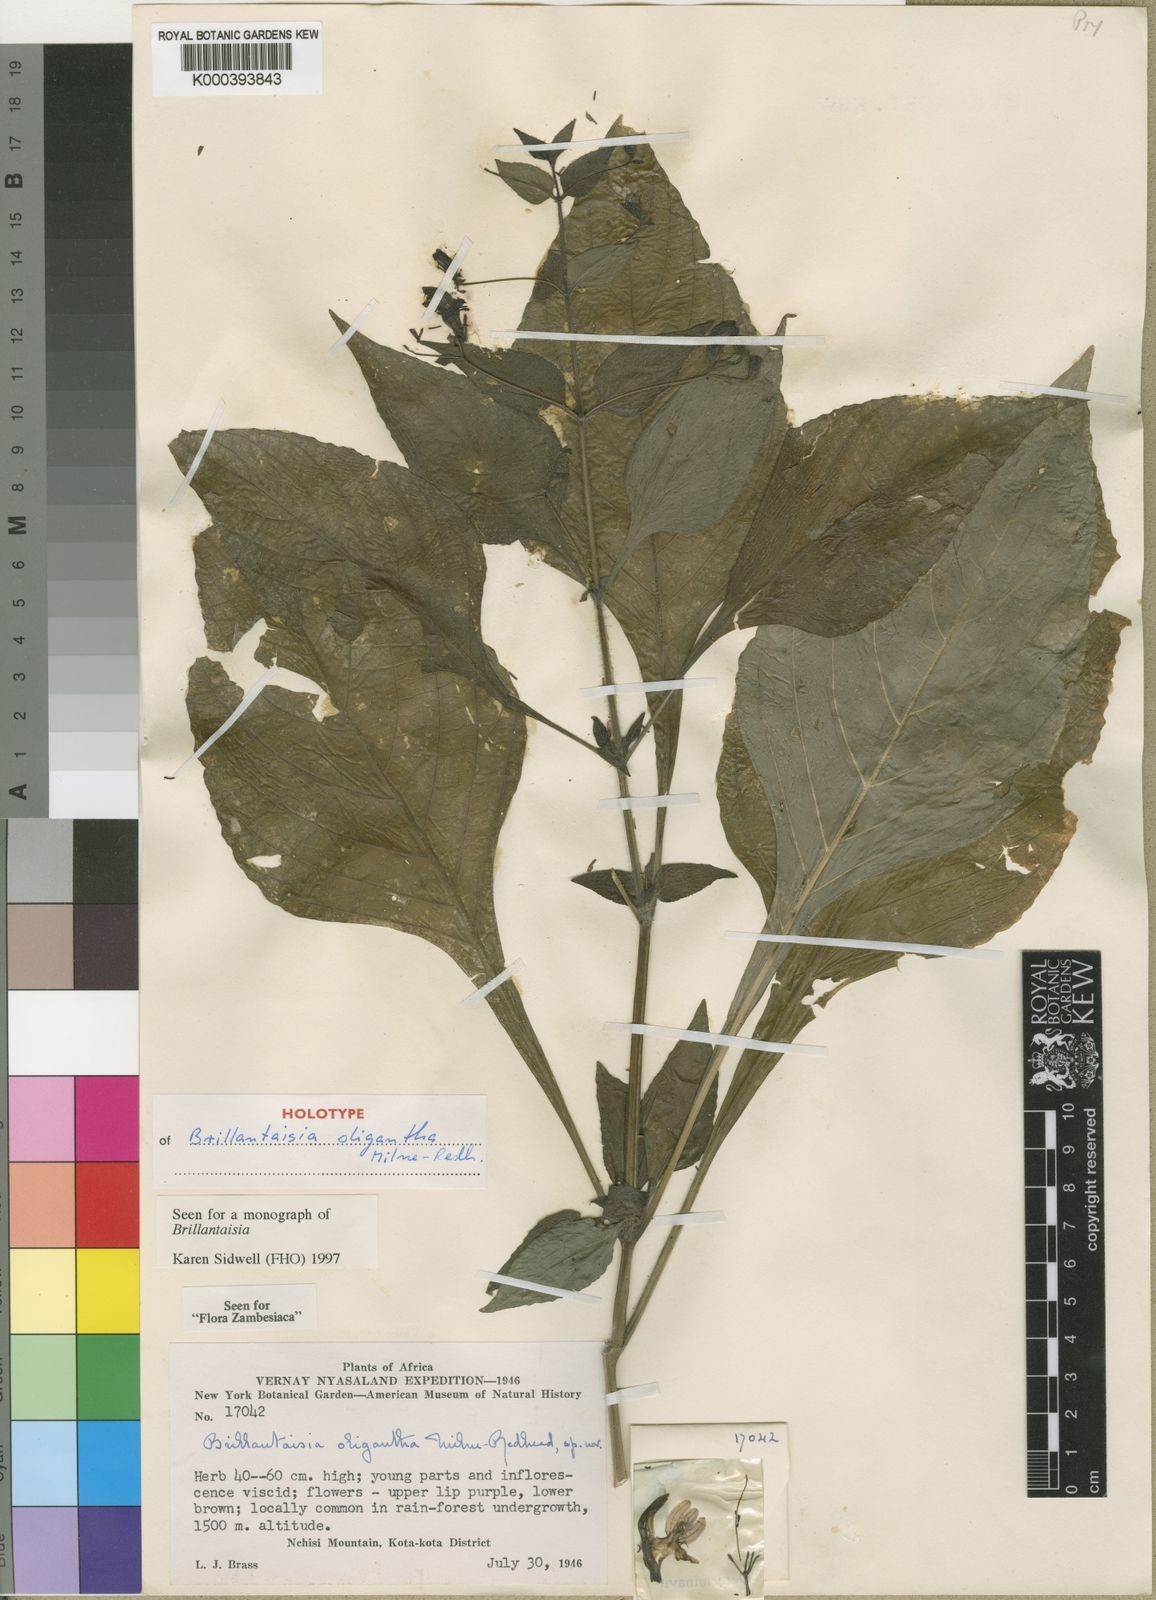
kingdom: Plantae
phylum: Tracheophyta
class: Magnoliopsida
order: Lamiales
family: Acanthaceae
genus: Brillantaisia
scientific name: Brillantaisia oligantha
